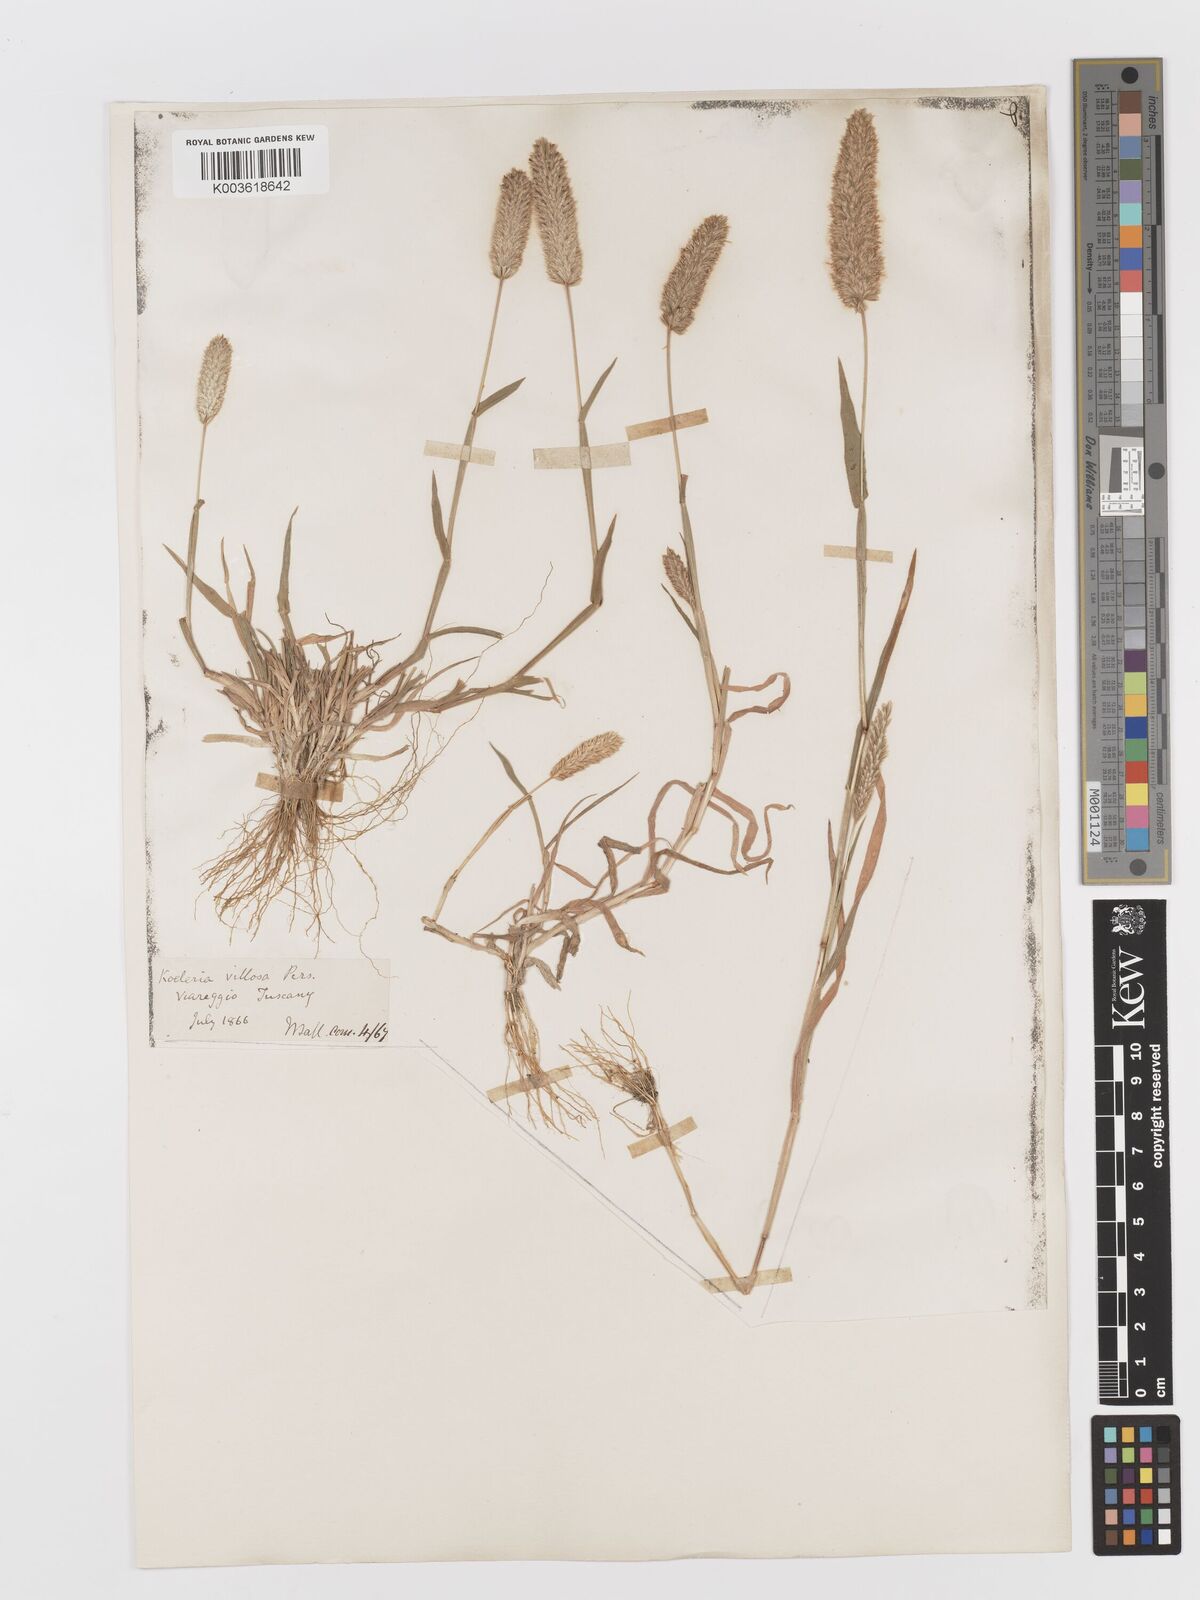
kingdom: Plantae
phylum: Tracheophyta
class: Liliopsida
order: Poales
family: Poaceae
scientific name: Poaceae
